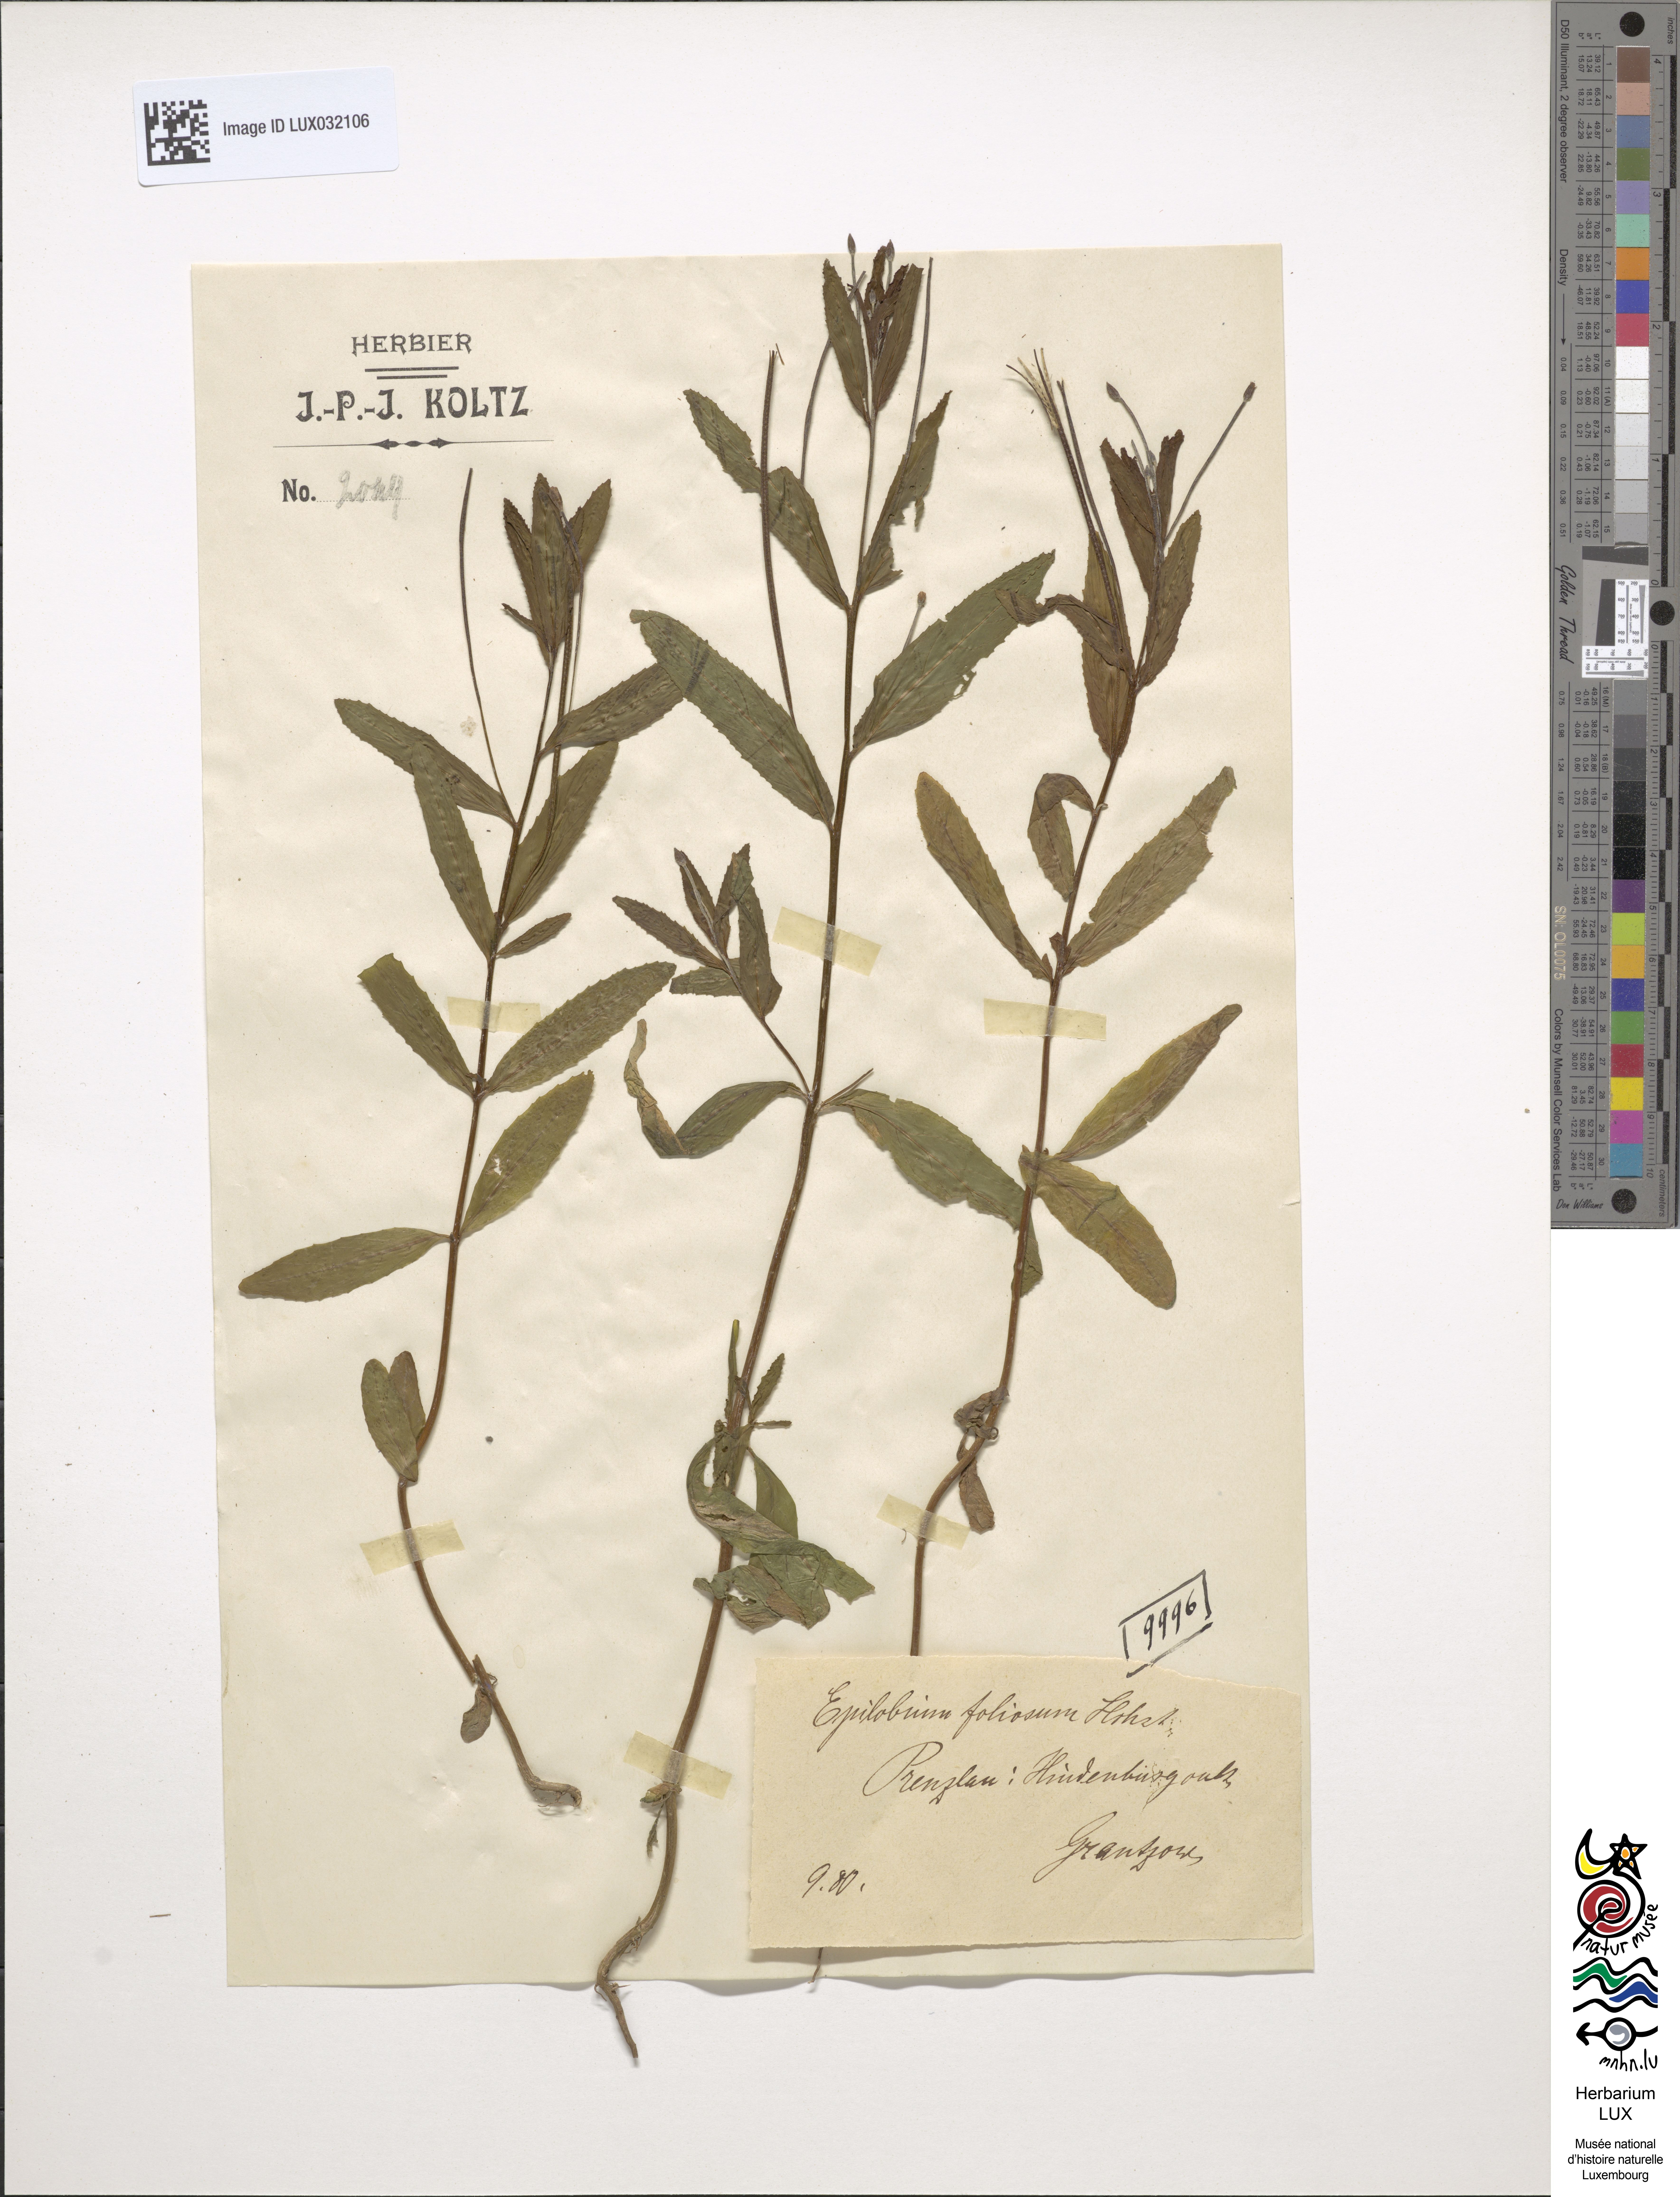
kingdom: Plantae
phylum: Tracheophyta
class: Magnoliopsida
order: Myrtales
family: Onagraceae
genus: Epilobium
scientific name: Epilobium
